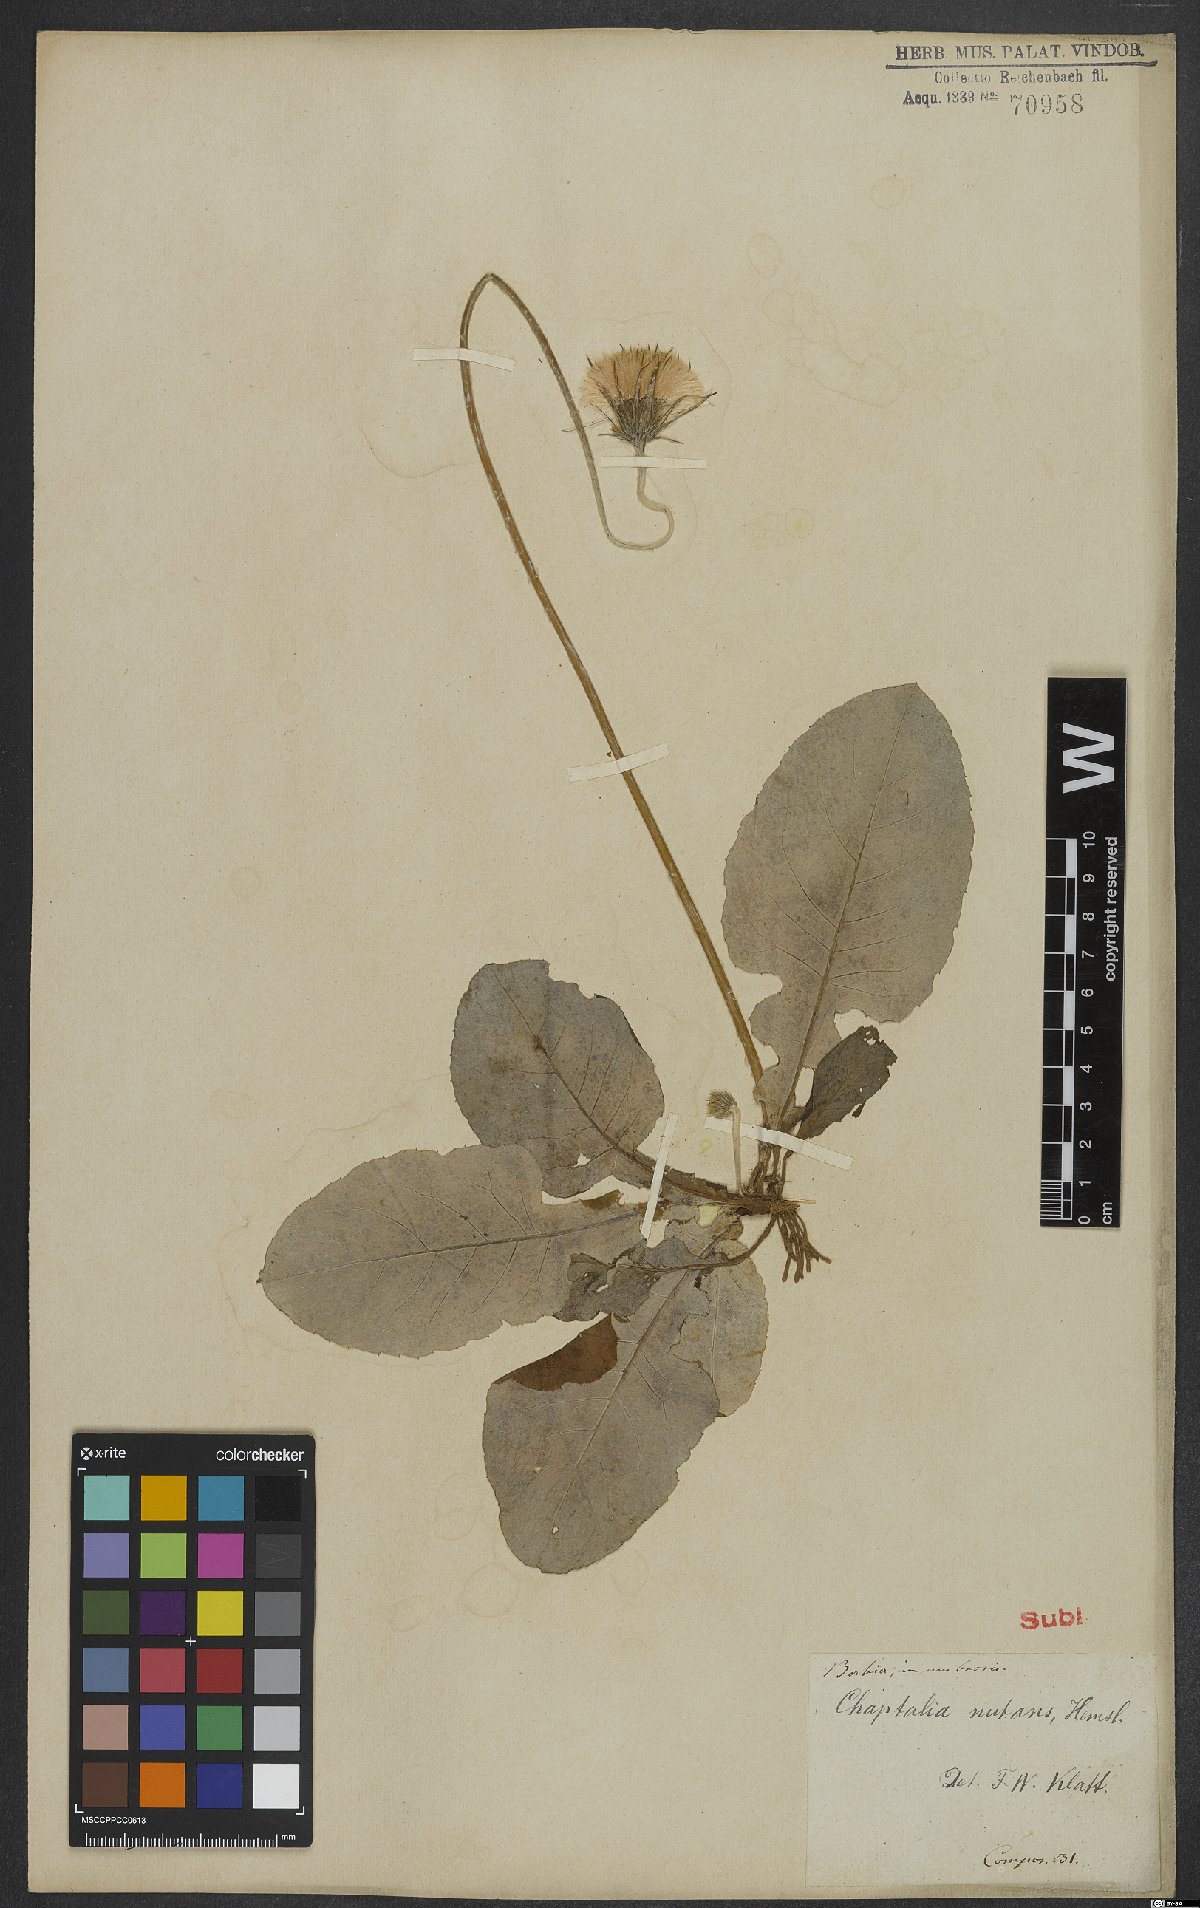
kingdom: Plantae
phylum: Tracheophyta
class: Magnoliopsida
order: Asterales
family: Asteraceae
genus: Chaptalia
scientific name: Chaptalia nutans
